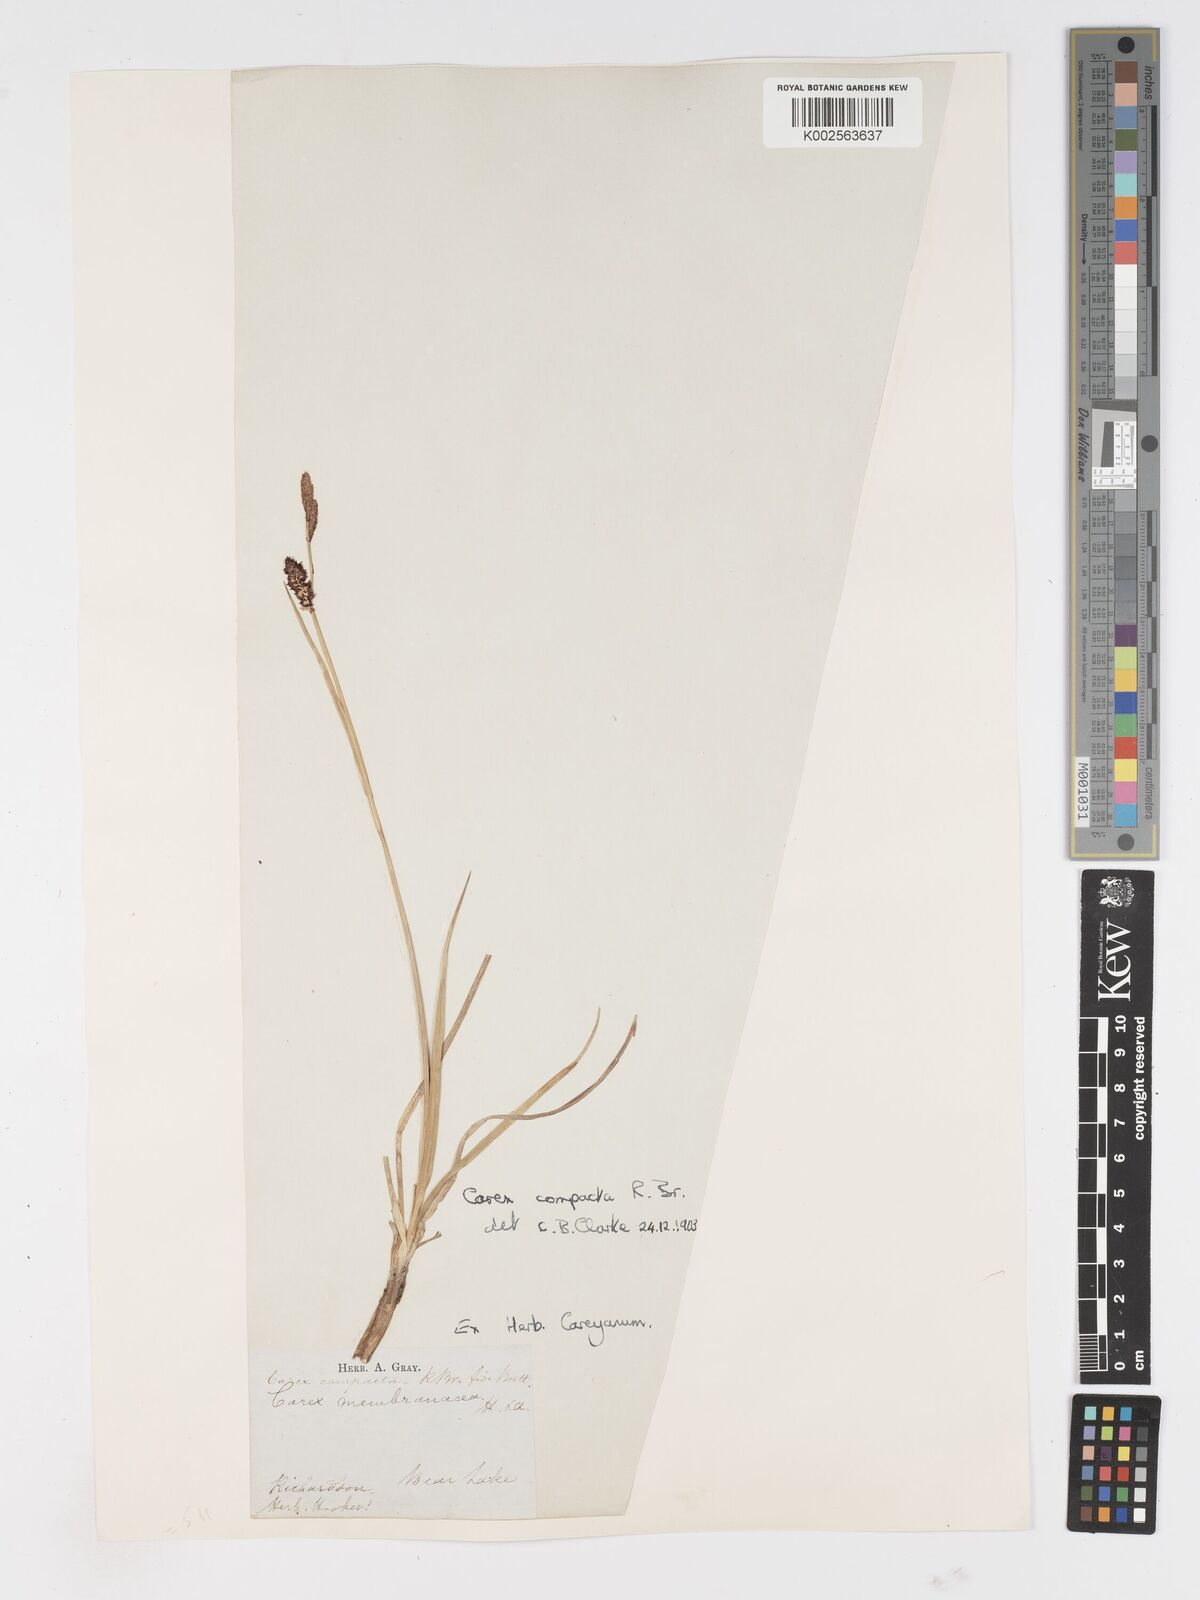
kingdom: Plantae
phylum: Tracheophyta
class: Liliopsida
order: Poales
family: Cyperaceae
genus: Carex
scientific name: Carex saxatilis
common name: Russet sedge
